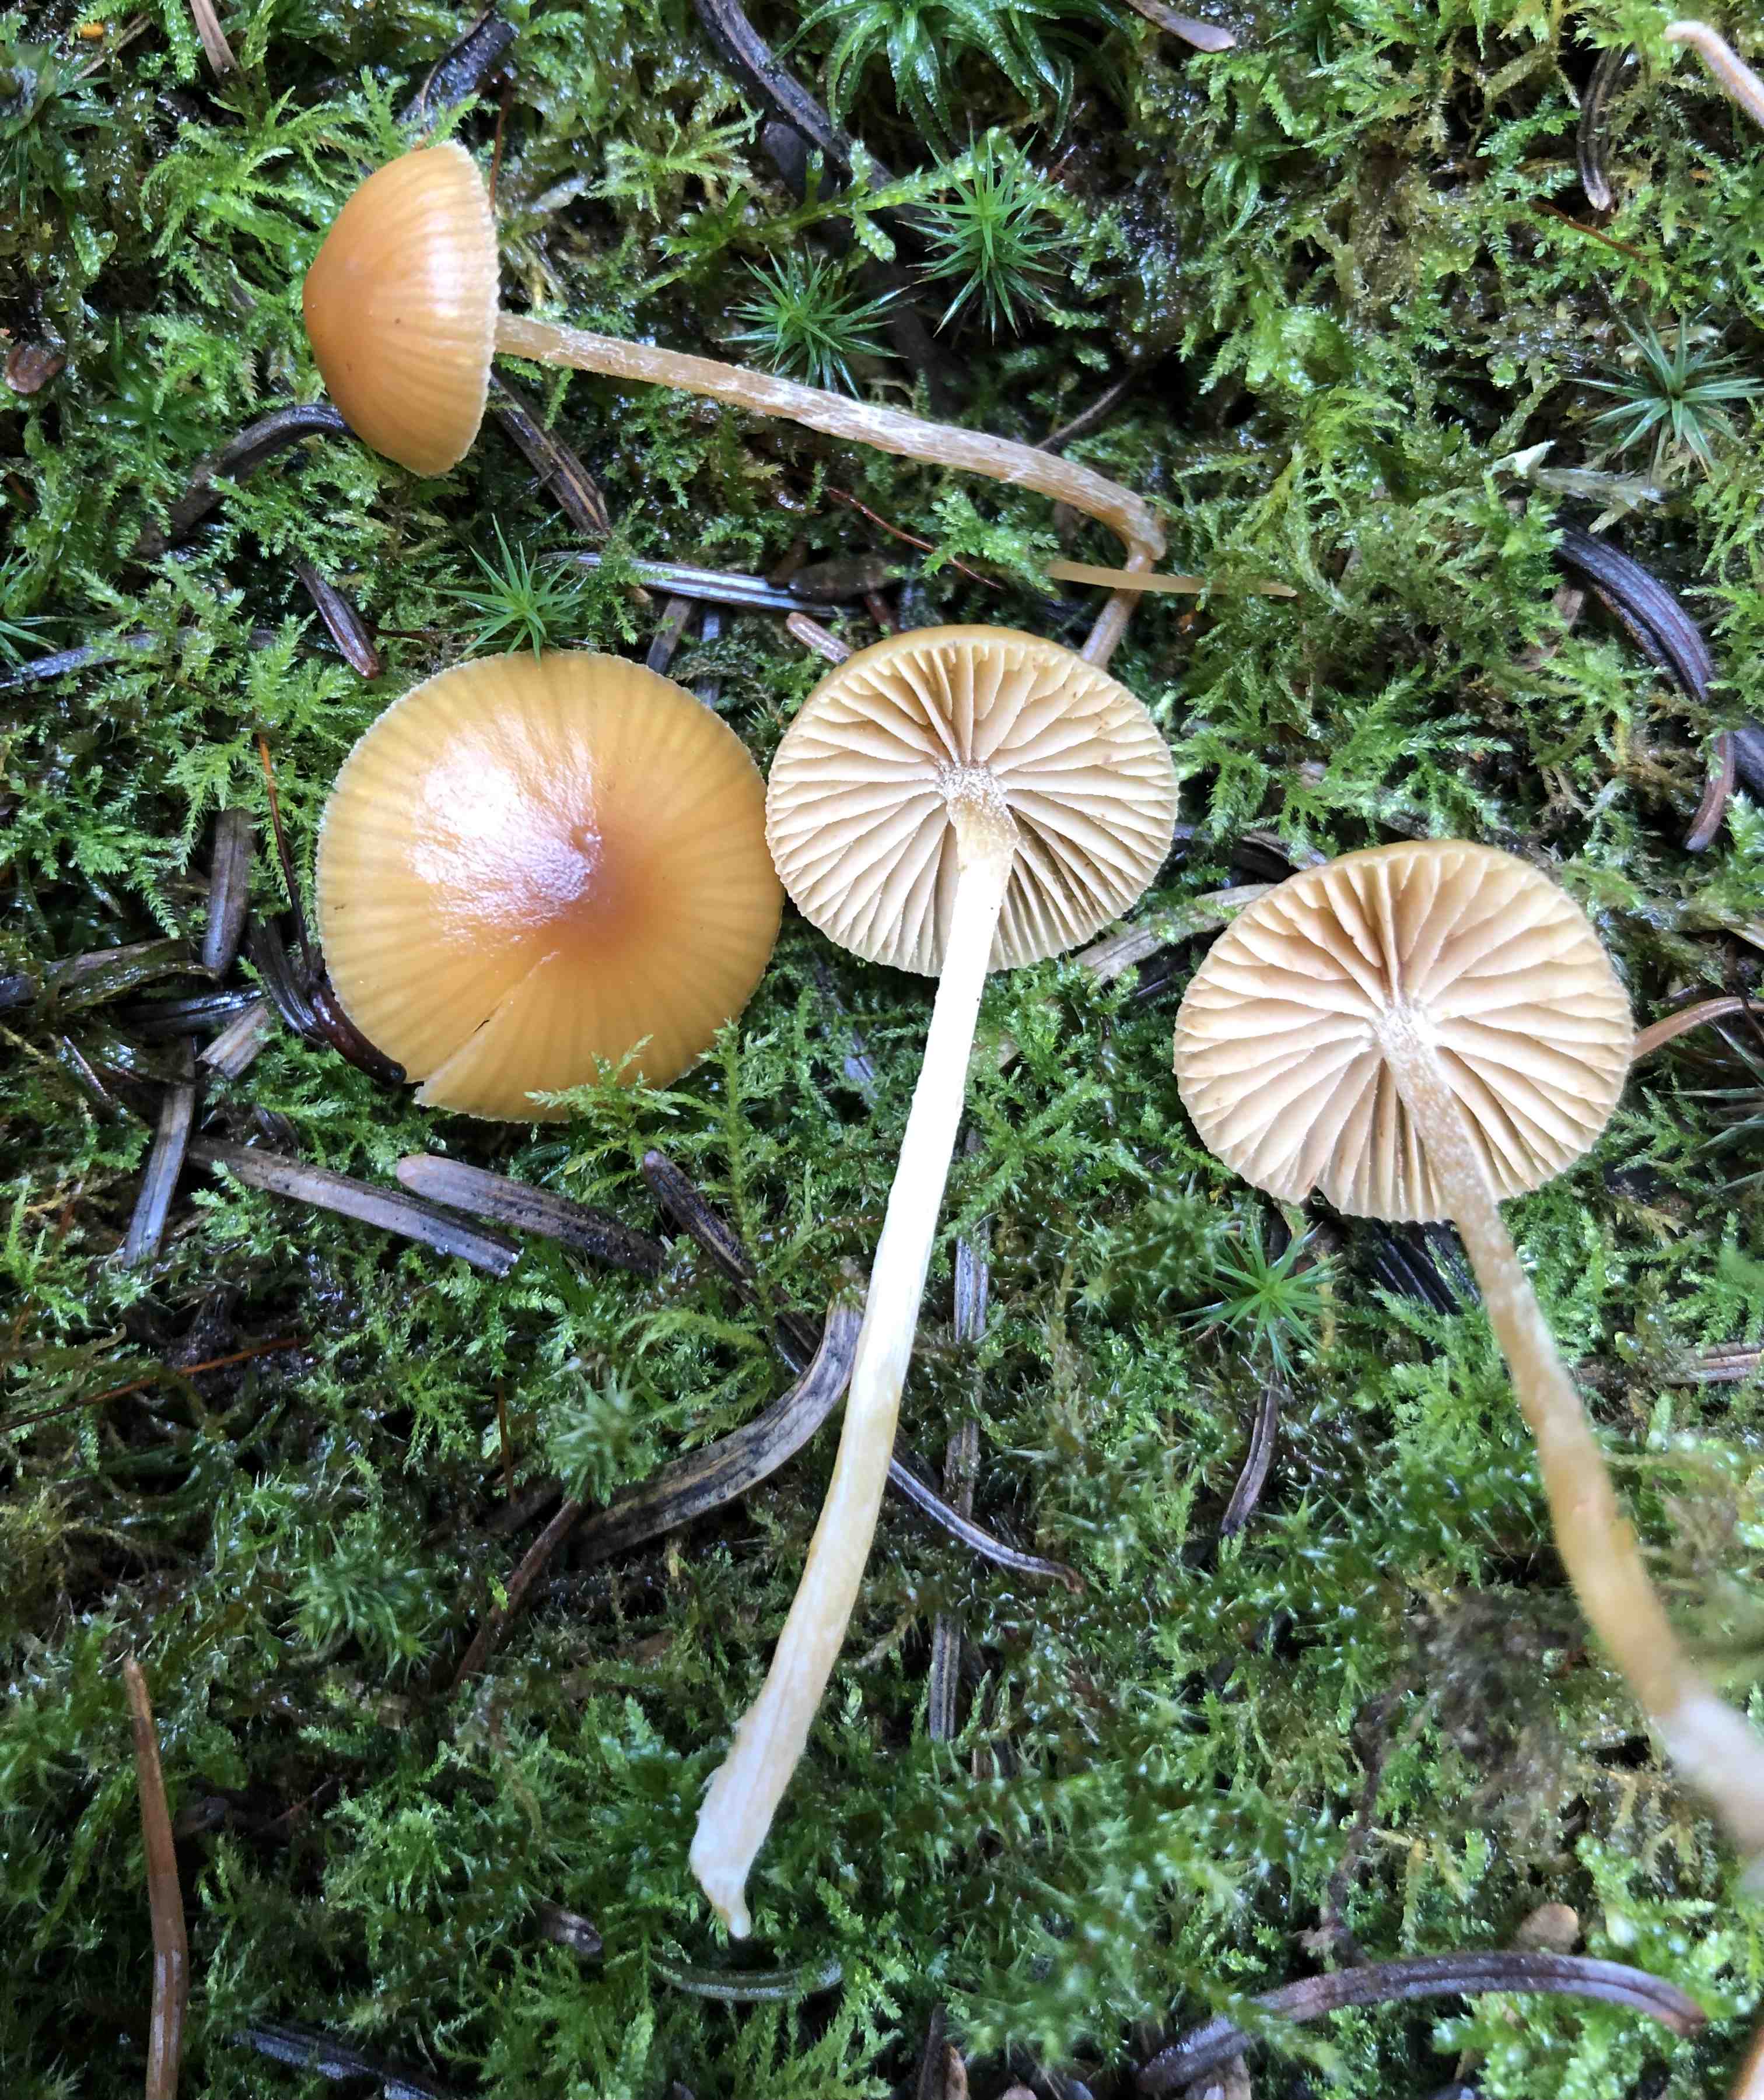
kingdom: Fungi
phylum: Basidiomycota
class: Agaricomycetes
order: Agaricales
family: Hymenogastraceae
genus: Galerina
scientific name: Galerina
